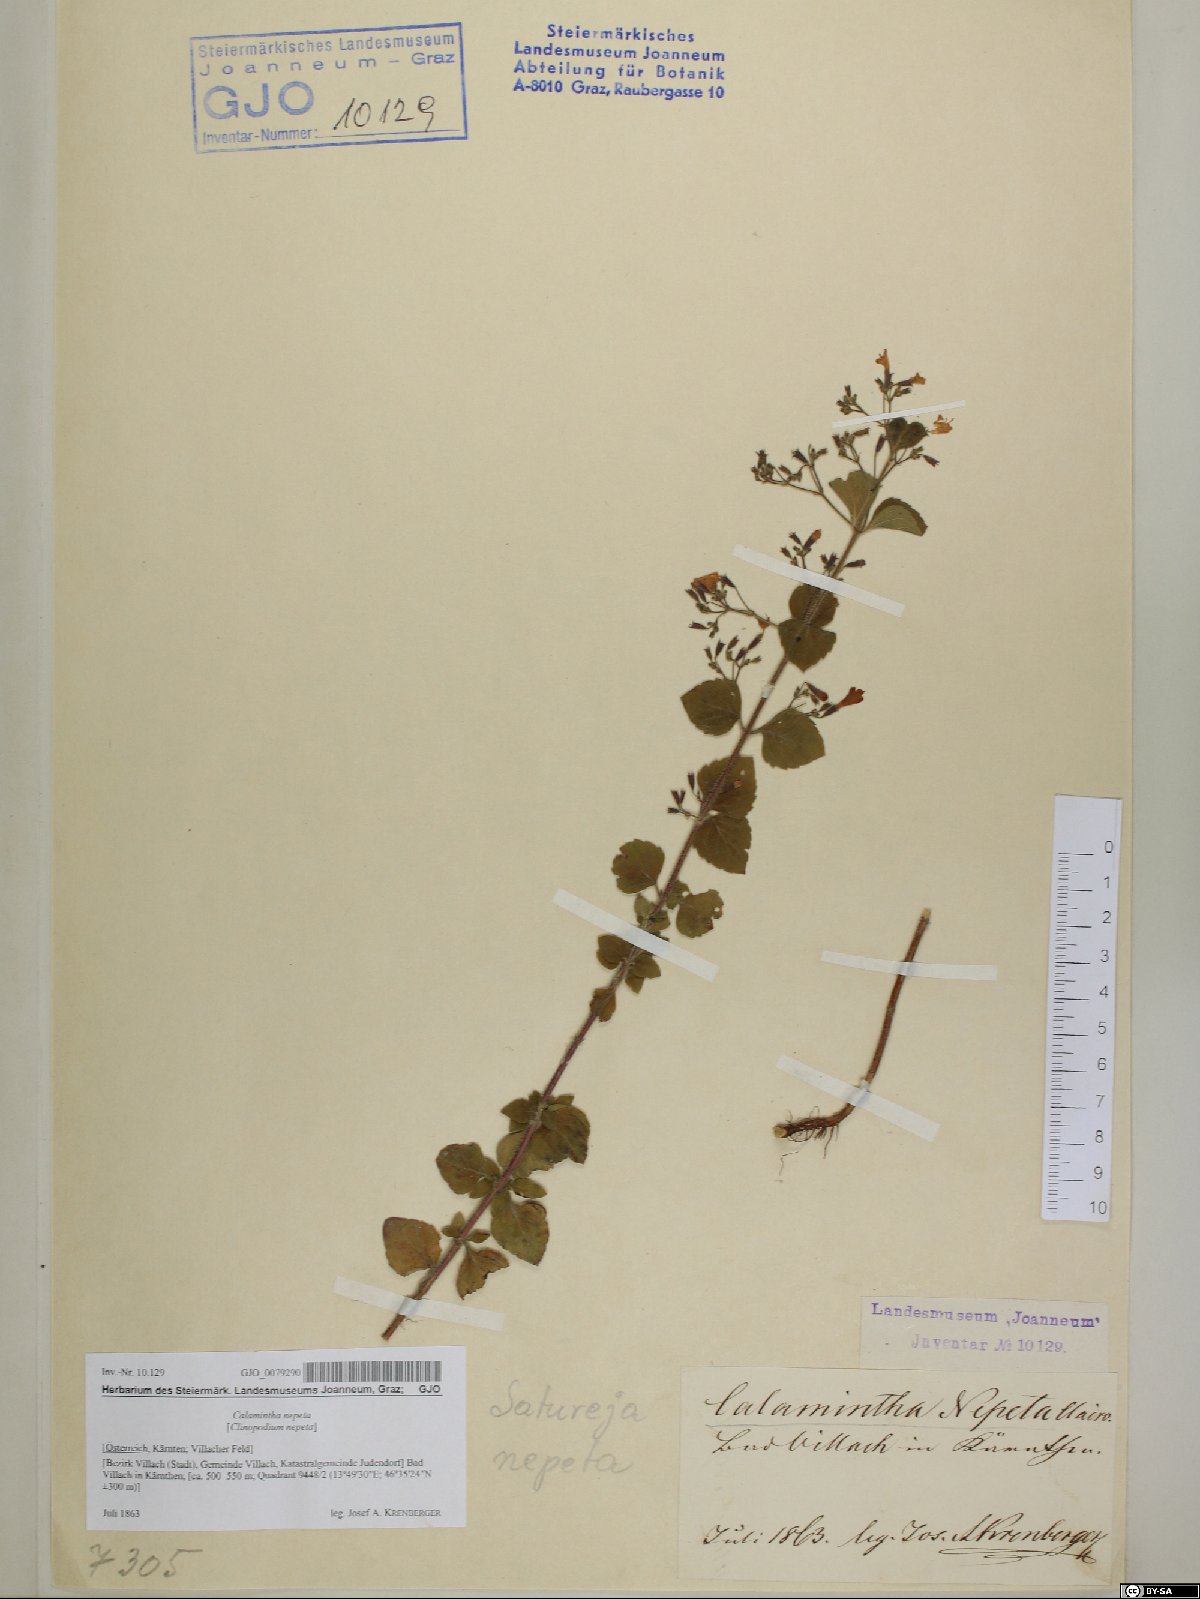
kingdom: Plantae
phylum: Tracheophyta
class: Magnoliopsida
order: Lamiales
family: Lamiaceae
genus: Clinopodium
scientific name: Clinopodium nepeta
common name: Lesser calamint
